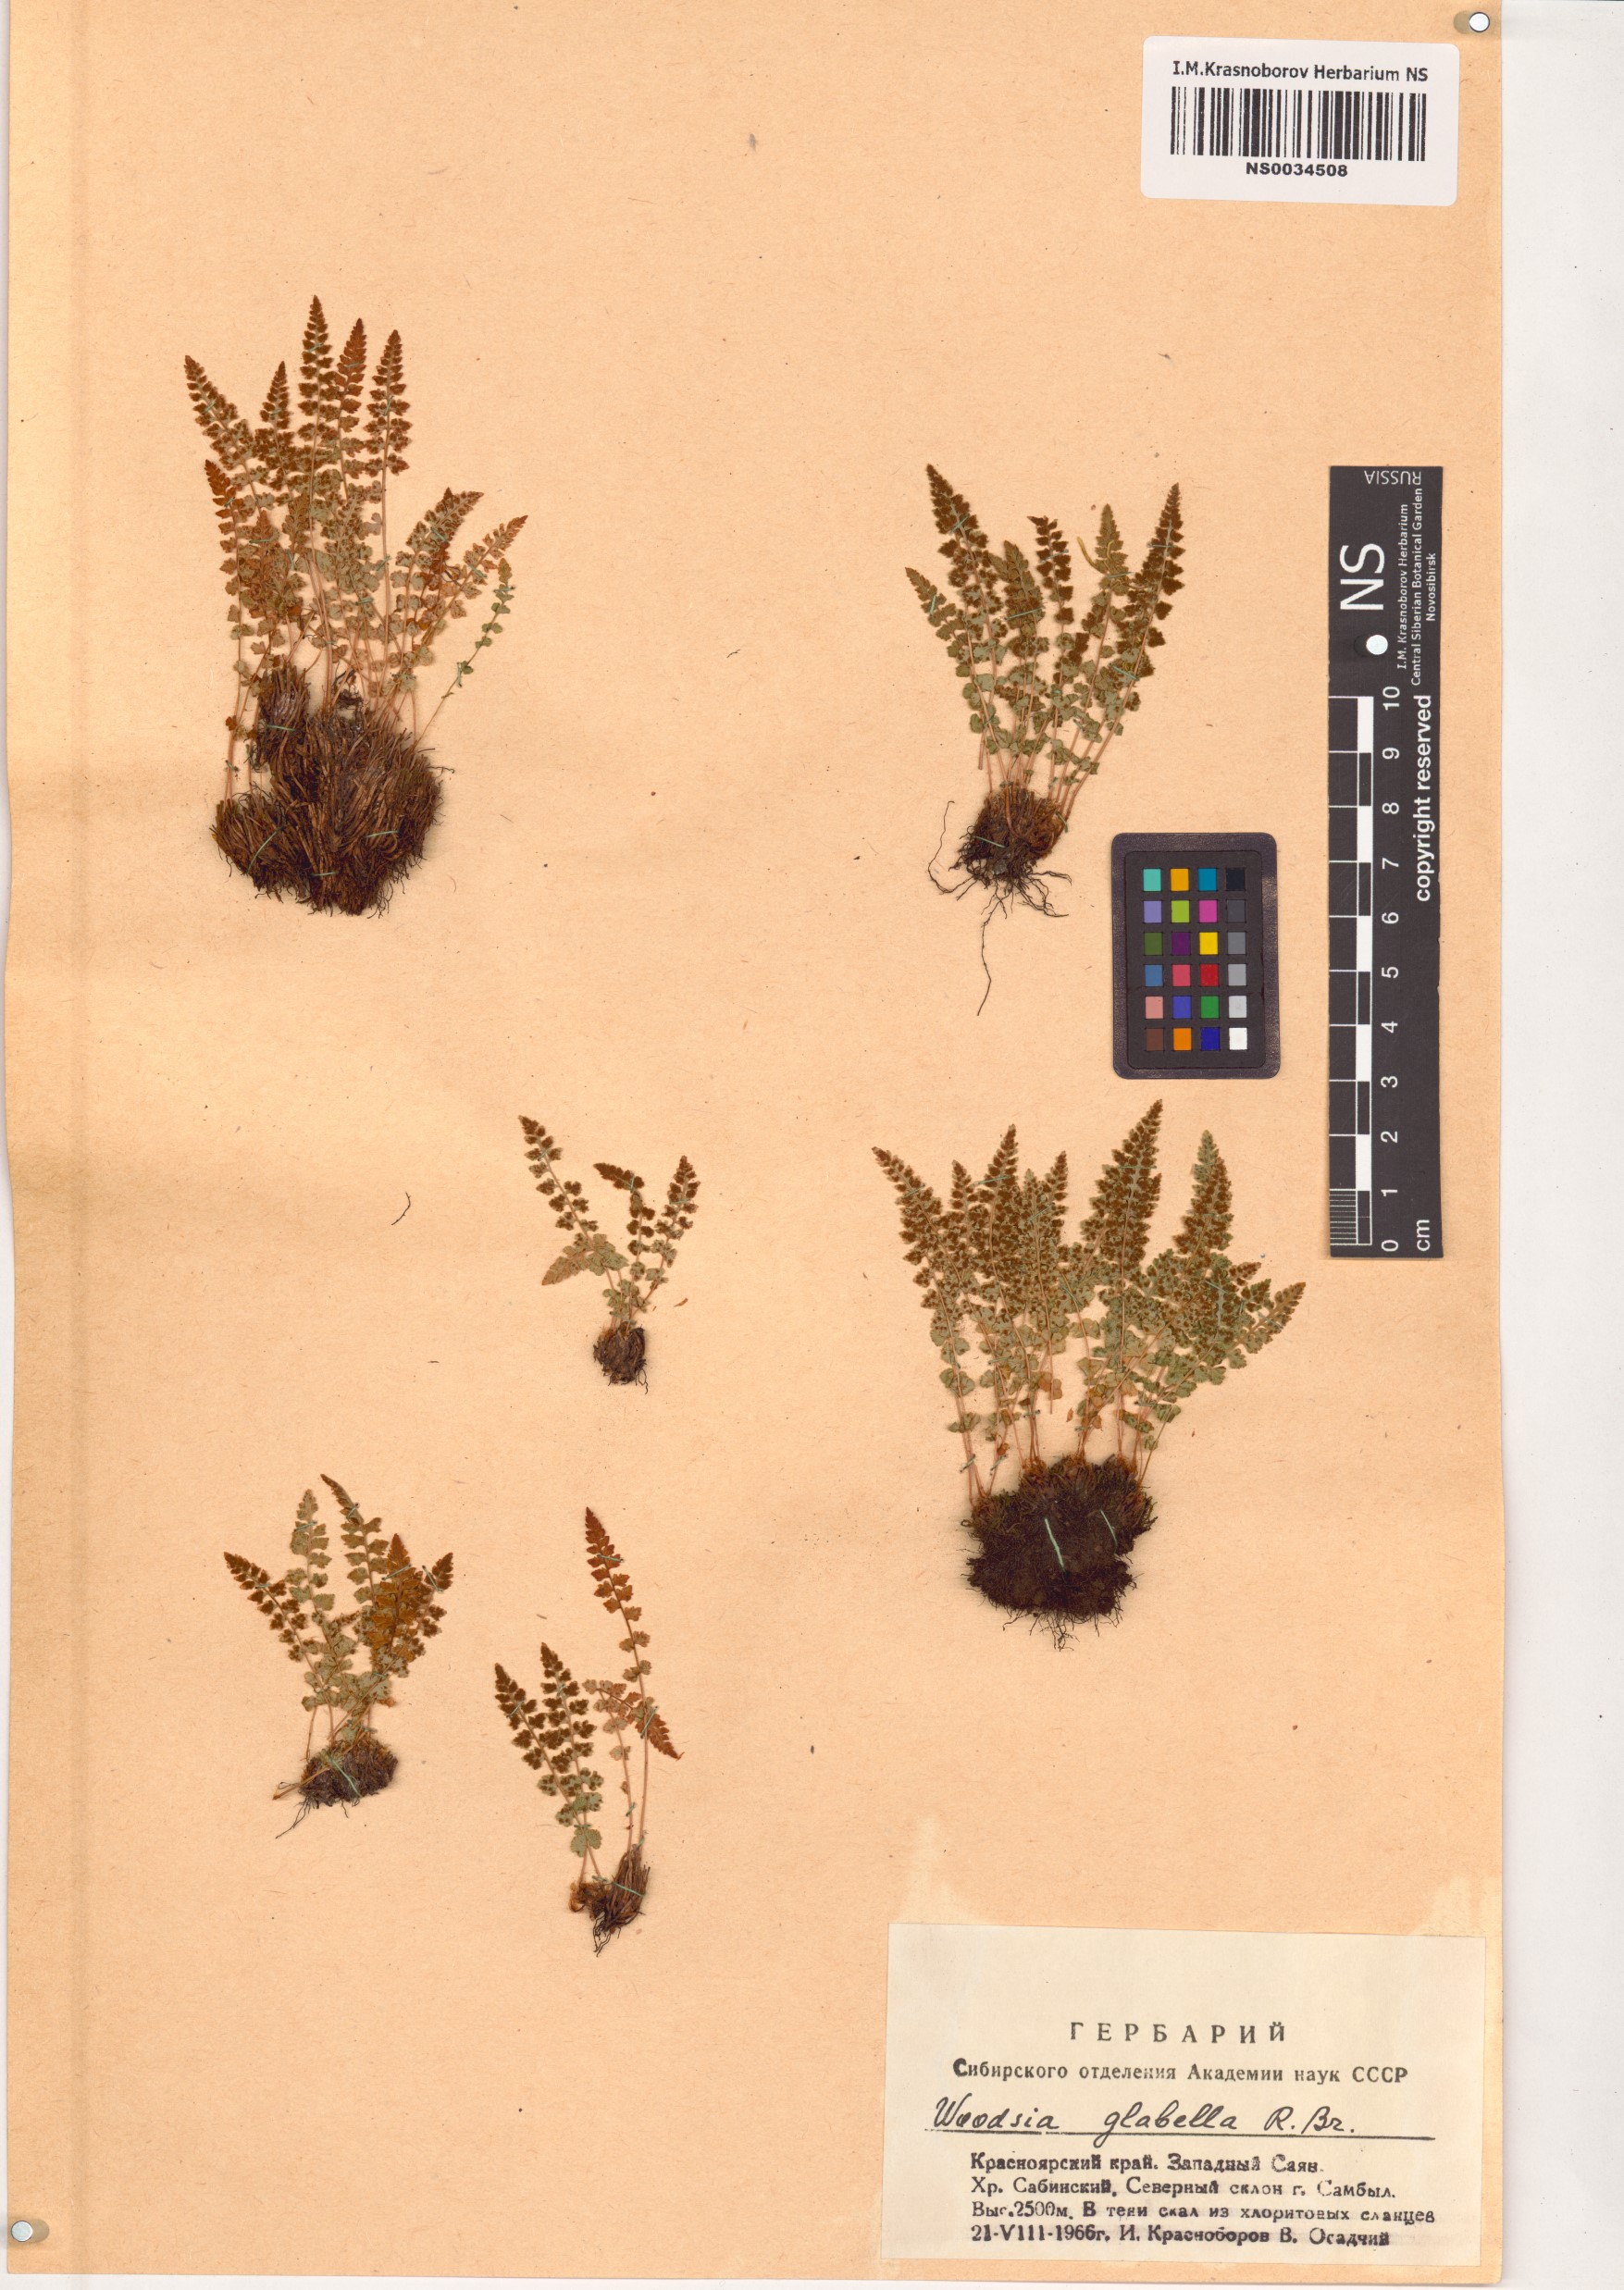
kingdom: Plantae
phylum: Tracheophyta
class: Polypodiopsida
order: Polypodiales
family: Woodsiaceae
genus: Woodsia
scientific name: Woodsia glabella
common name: Smooth woodsia
